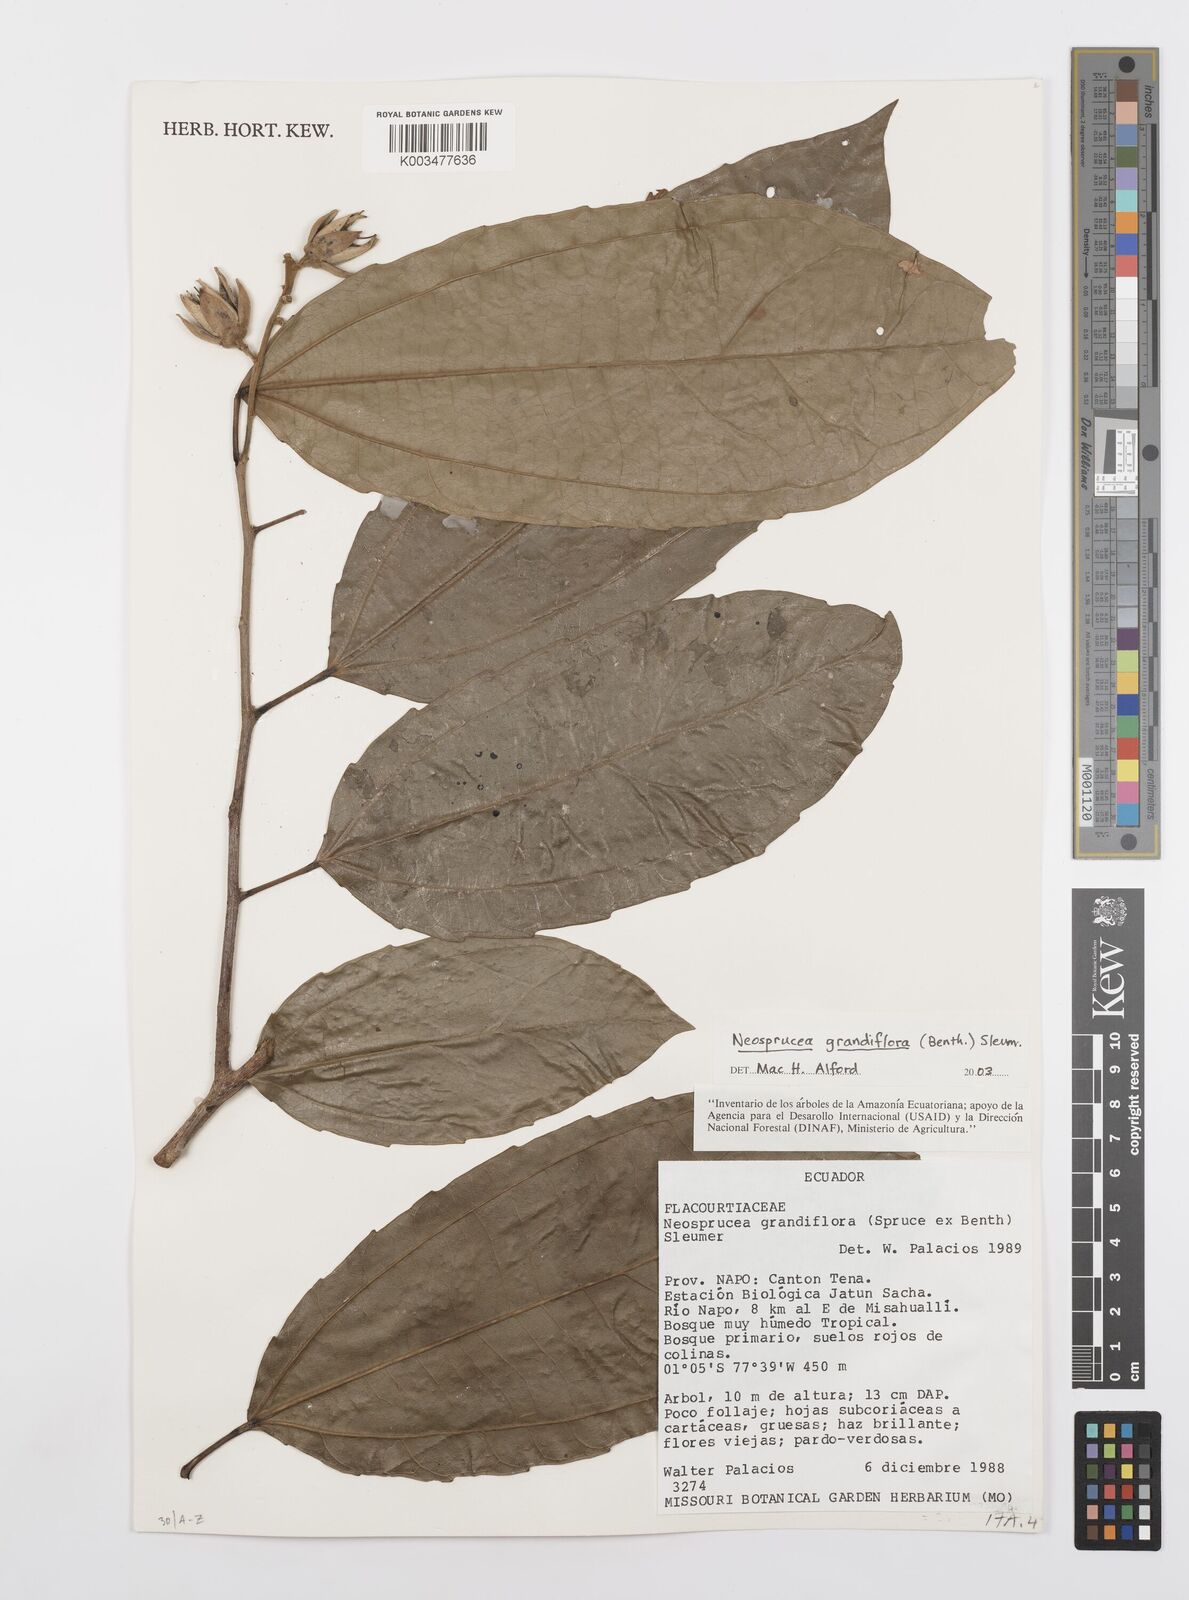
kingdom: Plantae
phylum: Tracheophyta
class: Magnoliopsida
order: Malpighiales
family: Salicaceae
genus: Neosprucea
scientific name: Neosprucea grandiflora
